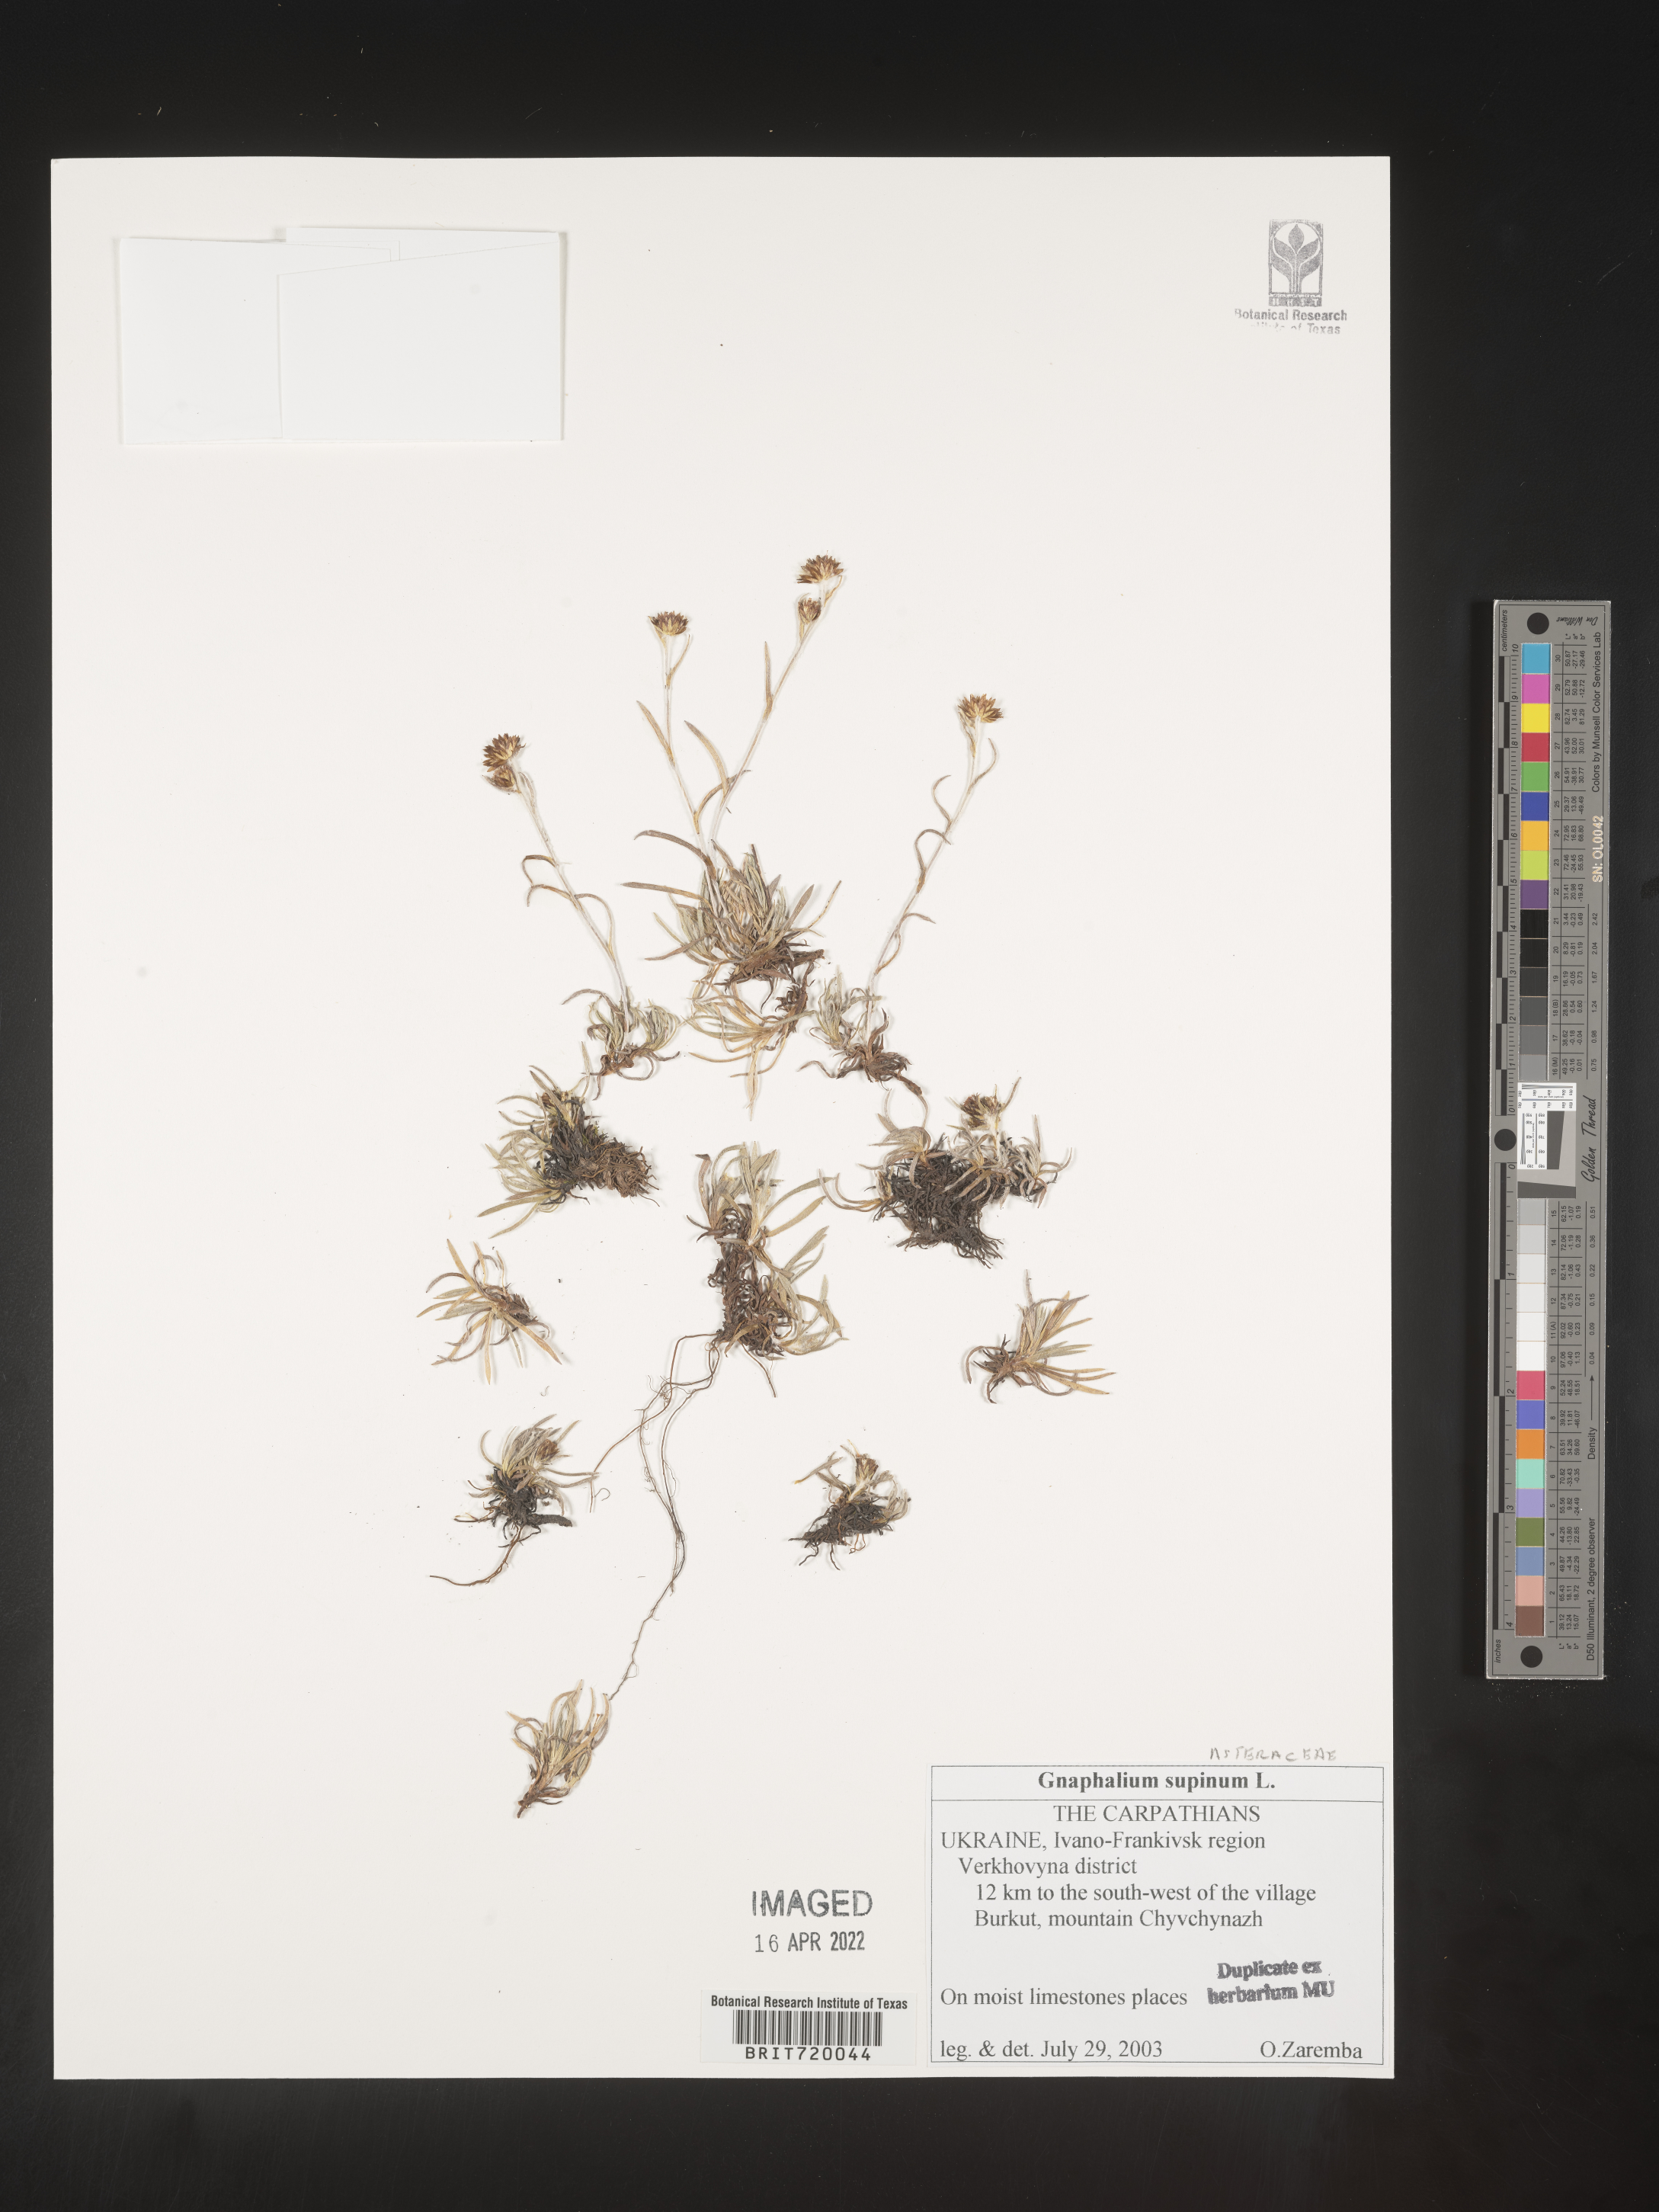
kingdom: Plantae
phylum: Tracheophyta
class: Magnoliopsida
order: Asterales
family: Asteraceae
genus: Gnaphalium
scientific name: Gnaphalium
